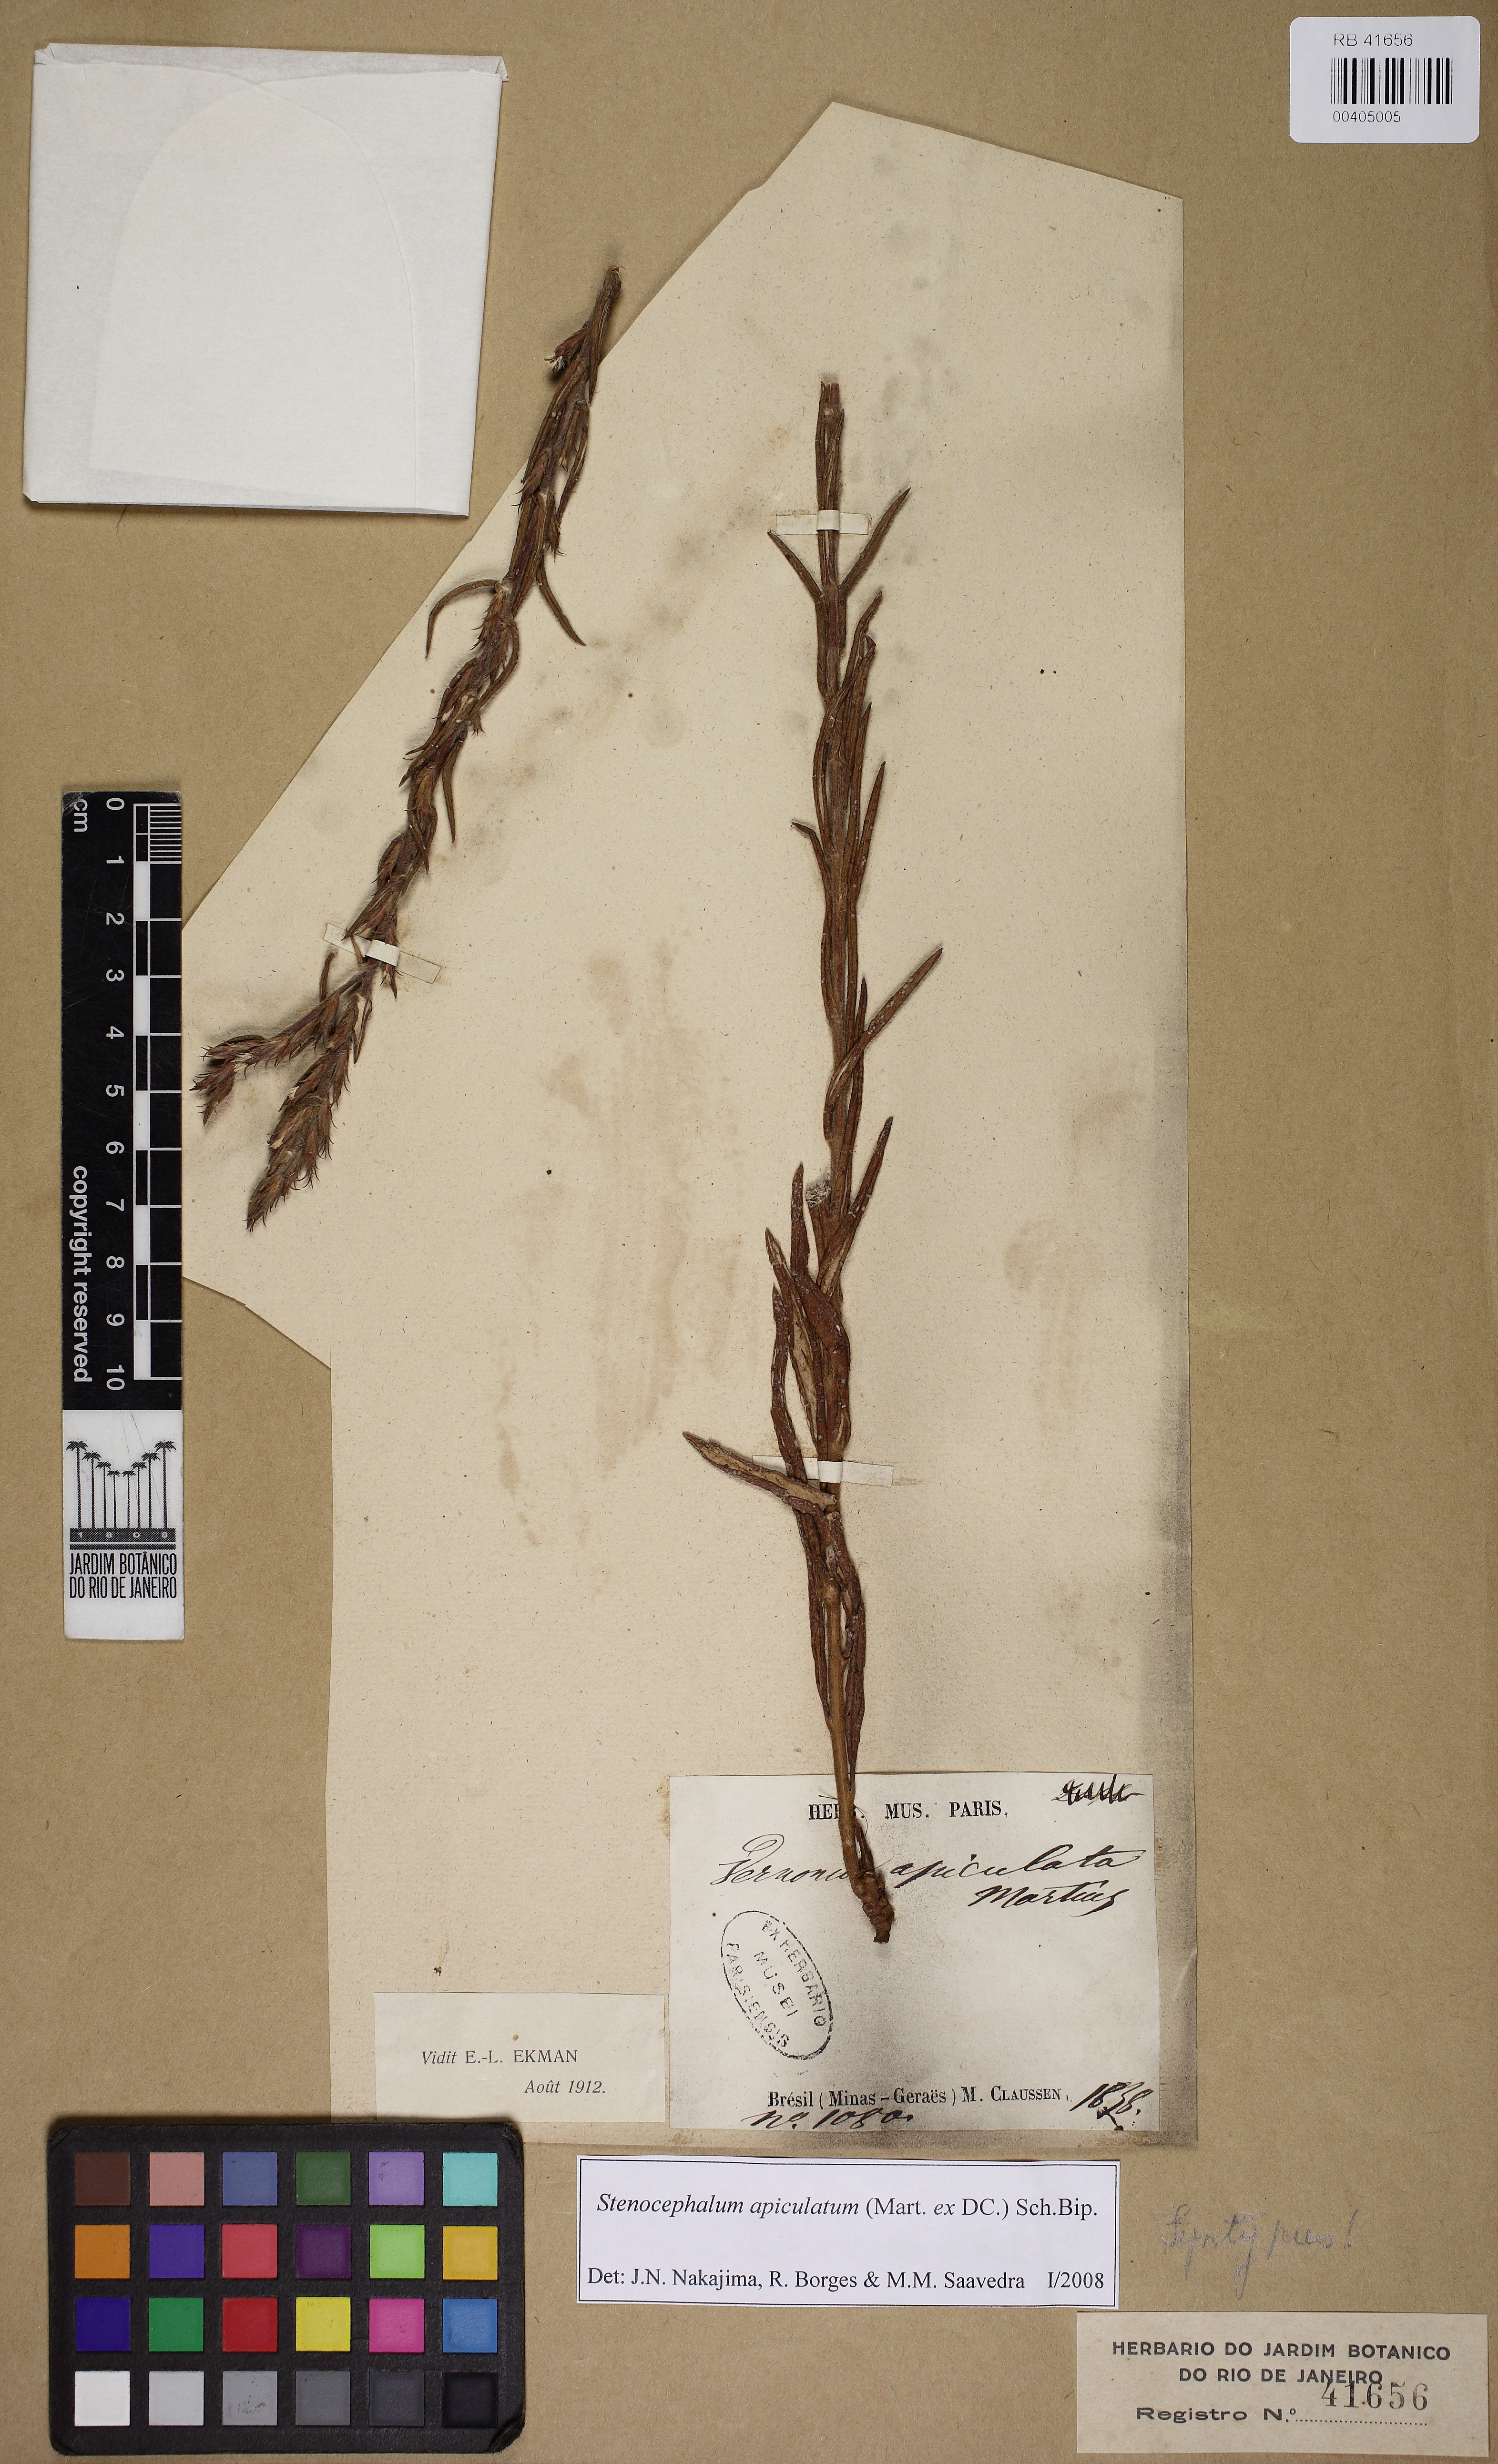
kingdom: Plantae
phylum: Tracheophyta
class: Magnoliopsida
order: Asterales
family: Asteraceae
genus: Stenocephalum
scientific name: Stenocephalum apiculatum
